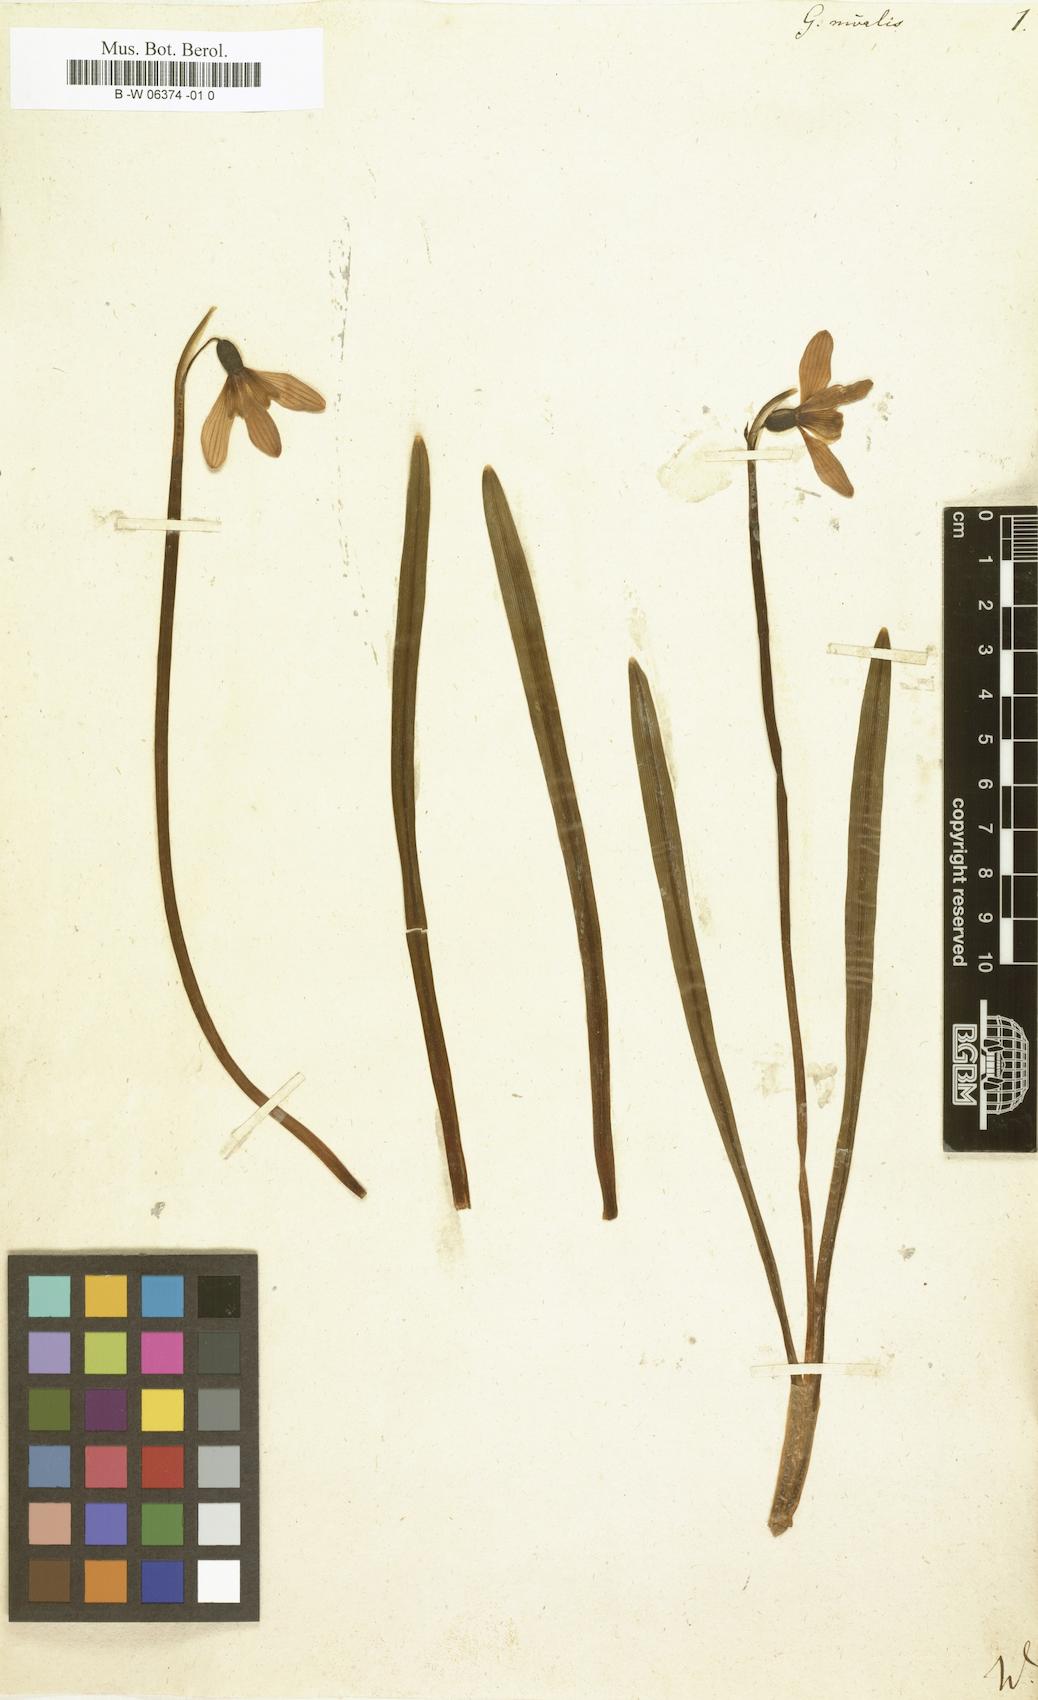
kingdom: Plantae
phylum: Tracheophyta
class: Liliopsida
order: Asparagales
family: Amaryllidaceae
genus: Galanthus
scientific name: Galanthus nivalis
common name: Snowdrop
